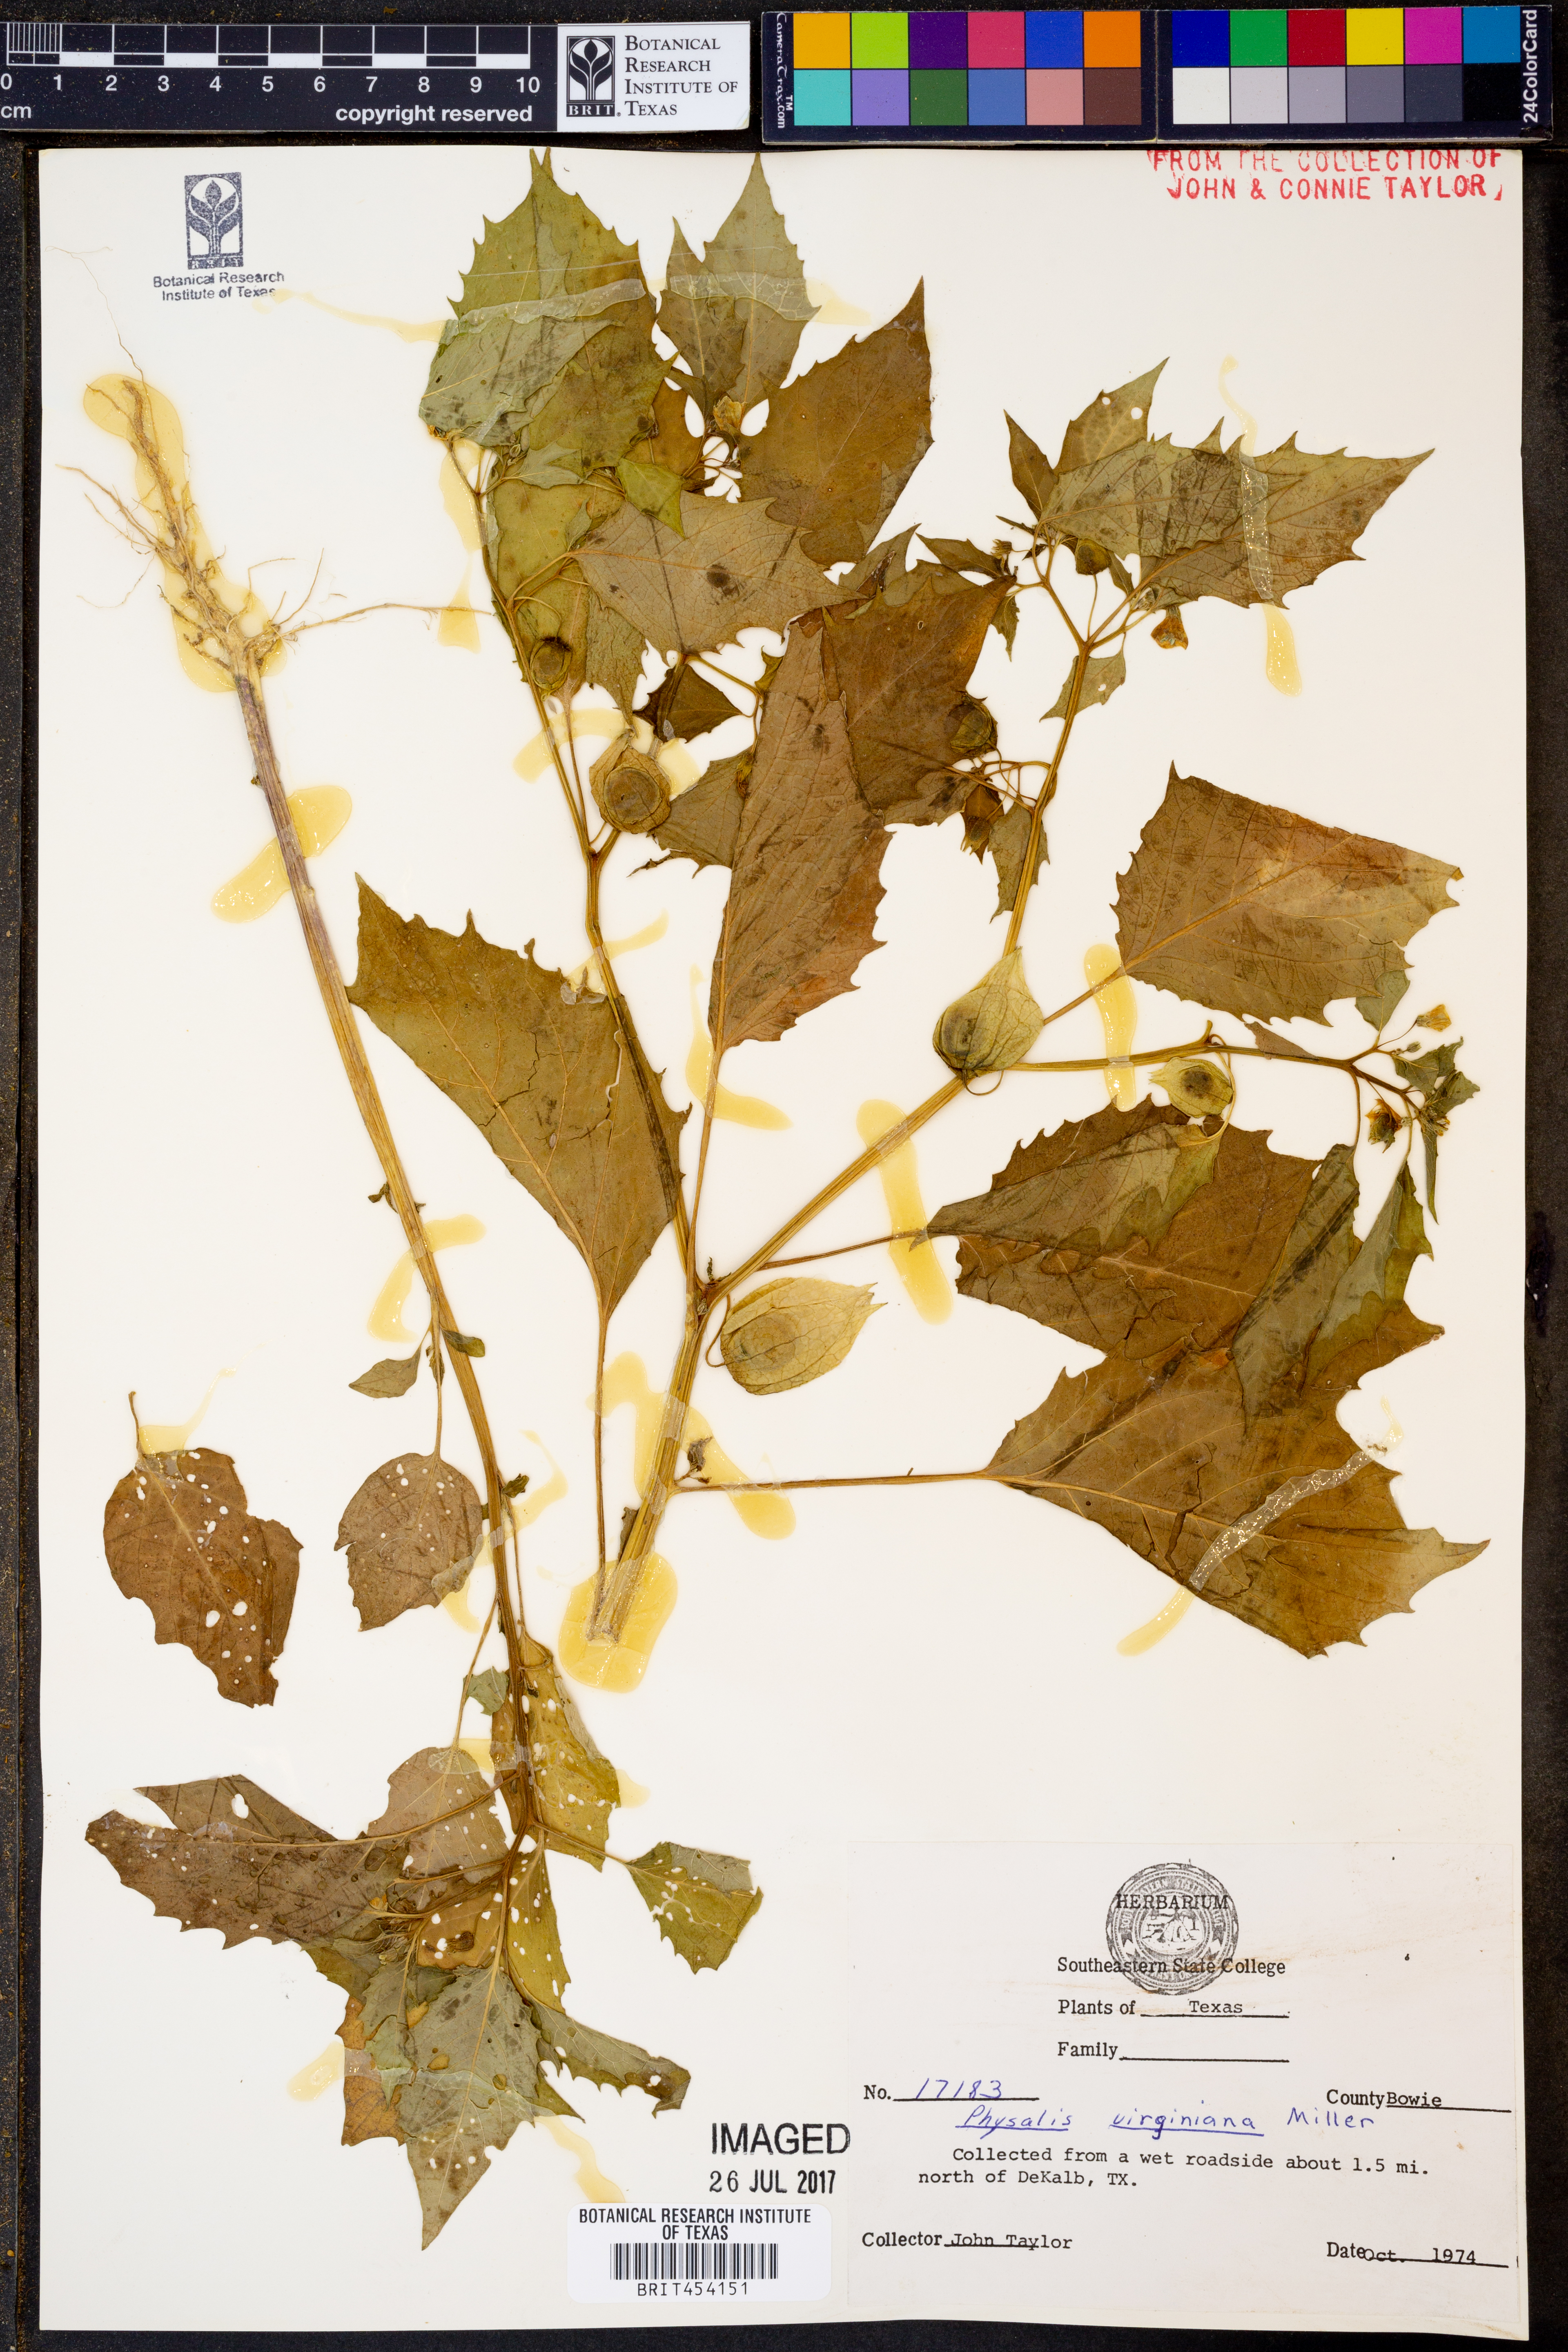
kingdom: Plantae
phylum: Tracheophyta
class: Magnoliopsida
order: Solanales
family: Solanaceae
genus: Physalis
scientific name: Physalis virginiana
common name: Virginia ground-cherry
